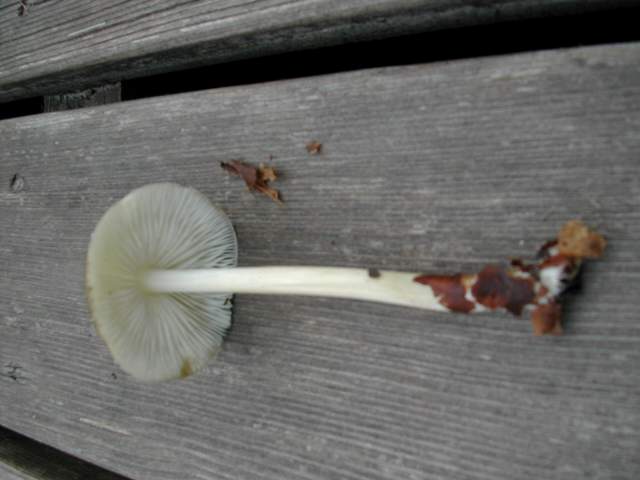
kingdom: Fungi
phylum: Basidiomycota
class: Agaricomycetes
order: Agaricales
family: Porotheleaceae
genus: Hydropodia
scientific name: Hydropodia subalpina
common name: vår-fnugfod
